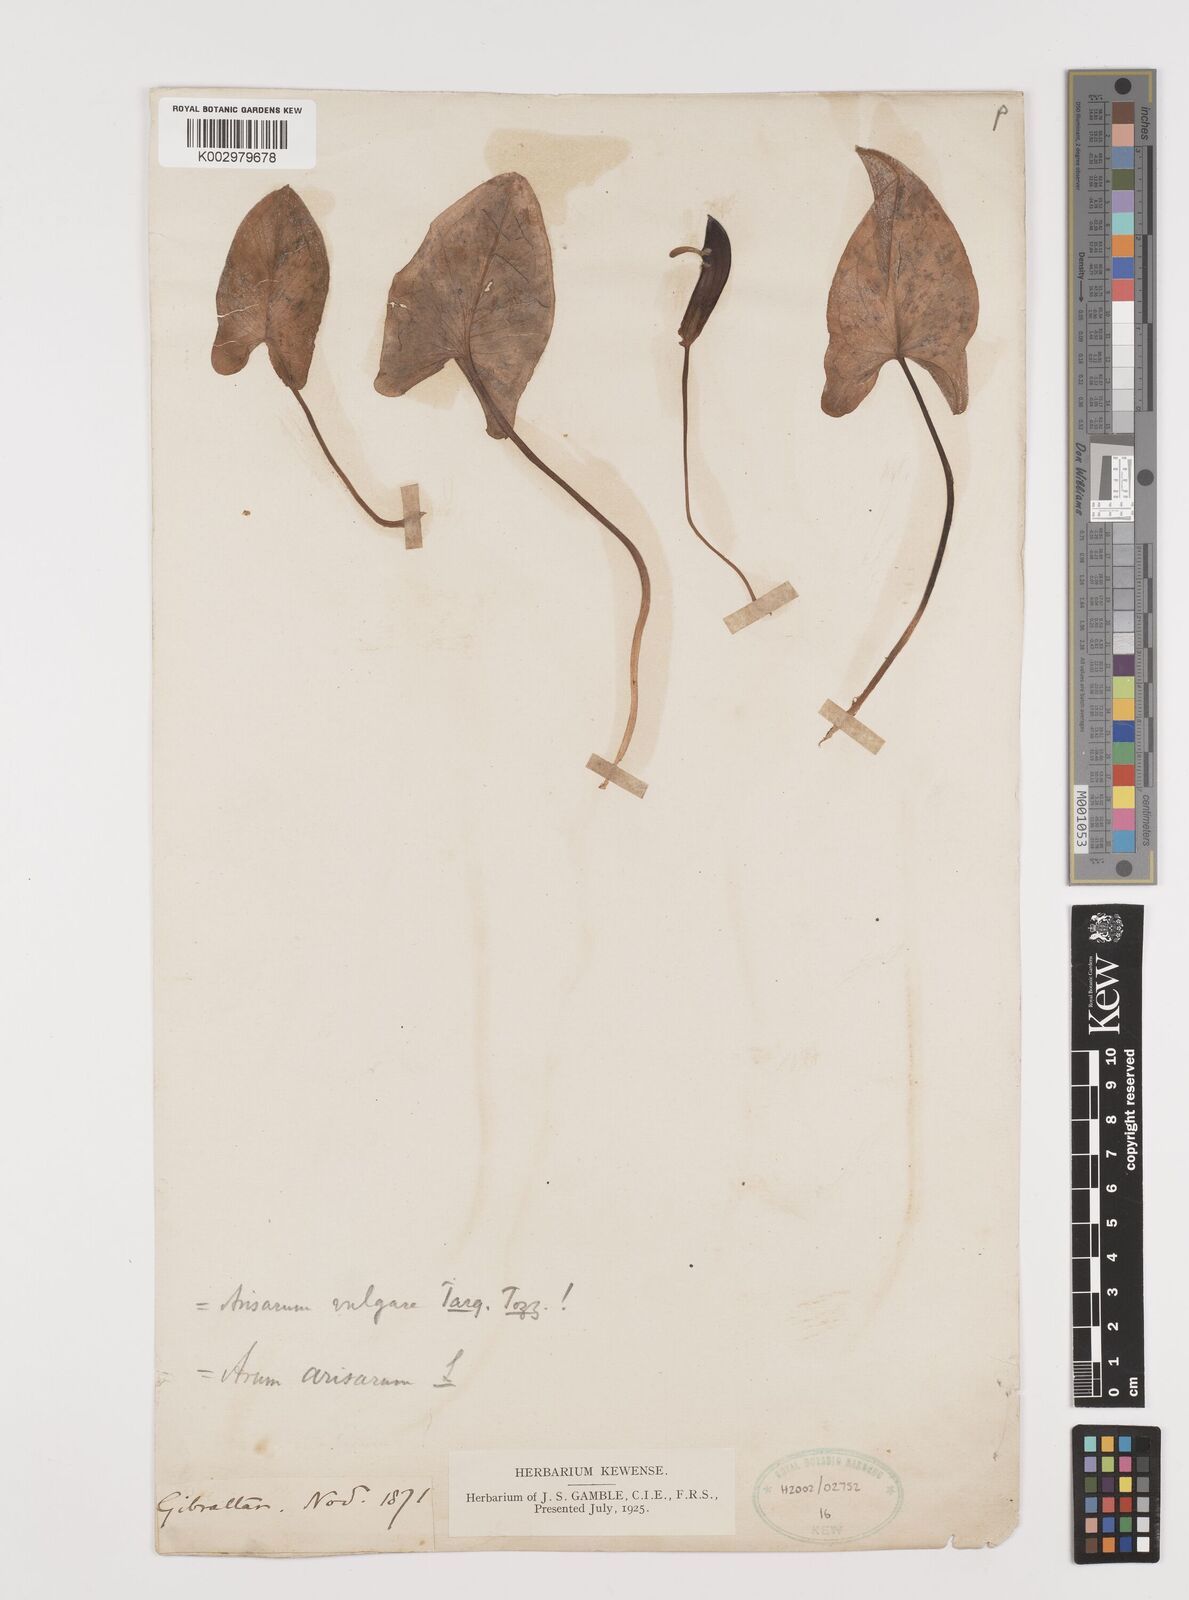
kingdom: Plantae
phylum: Tracheophyta
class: Liliopsida
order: Alismatales
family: Araceae
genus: Arisarum
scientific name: Arisarum vulgare
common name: Common arisarum
